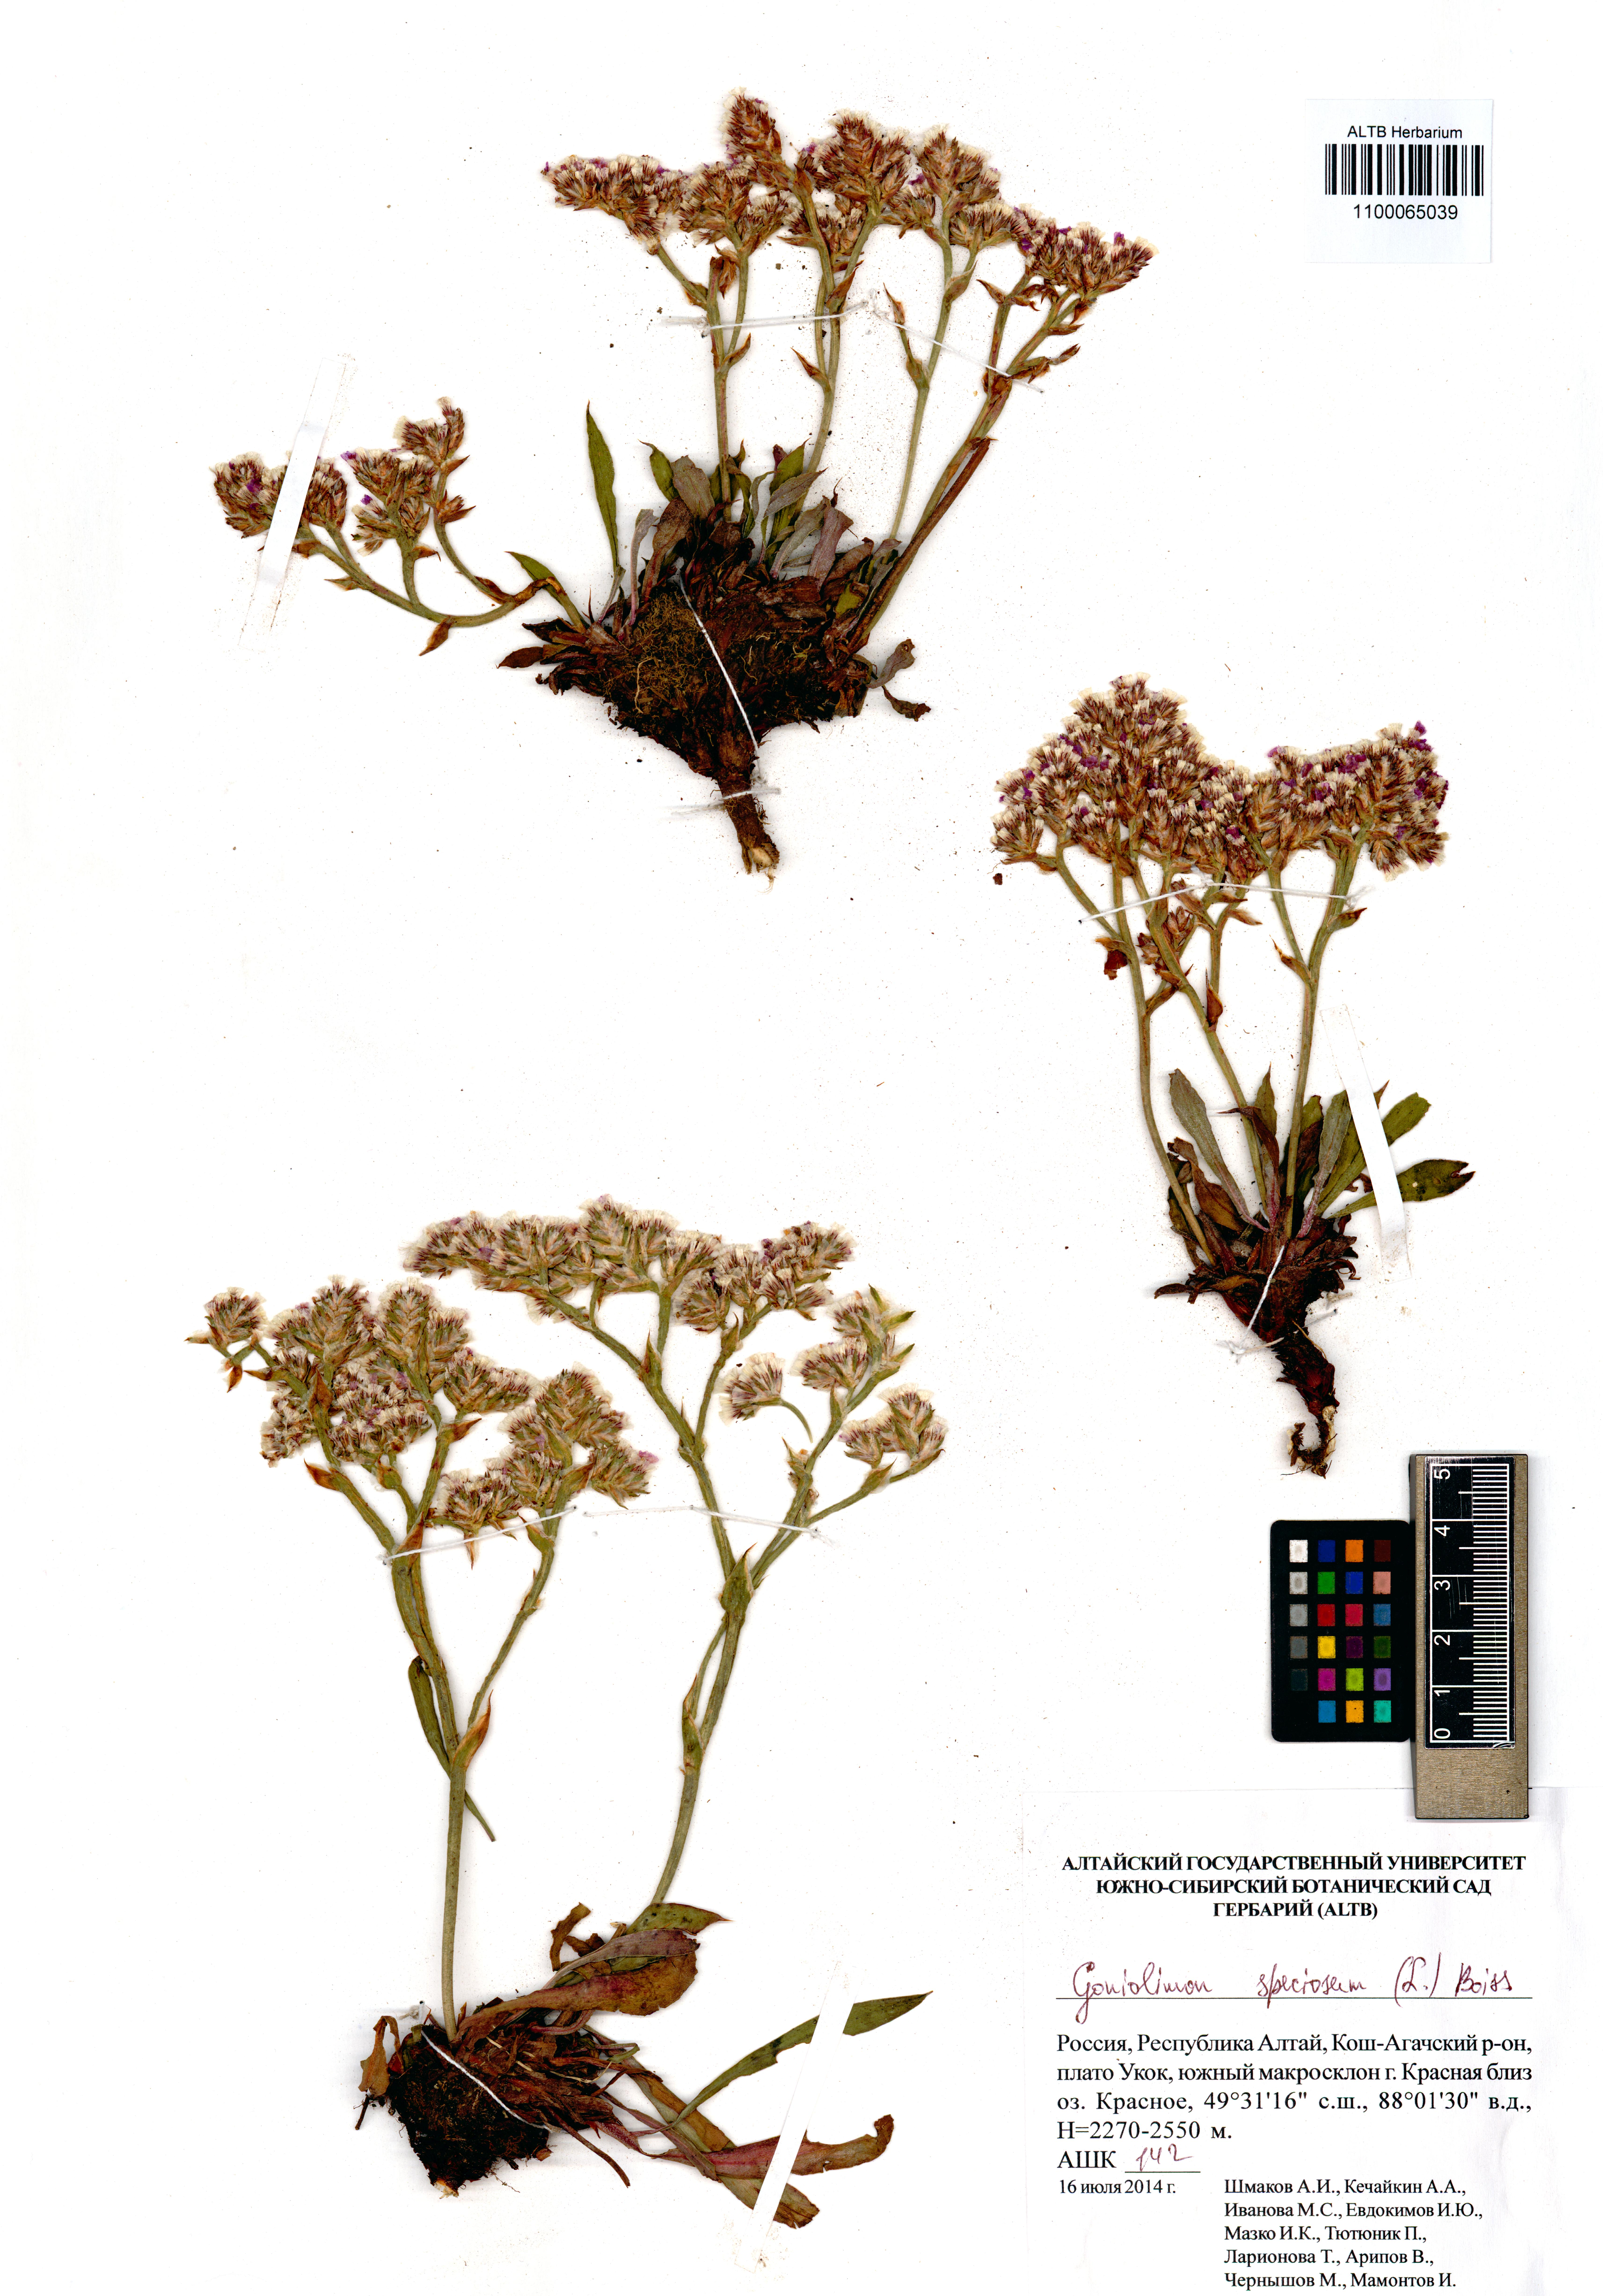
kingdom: Plantae
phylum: Tracheophyta
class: Magnoliopsida
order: Caryophyllales
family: Plumbaginaceae
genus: Goniolimon
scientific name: Goniolimon speciosum
